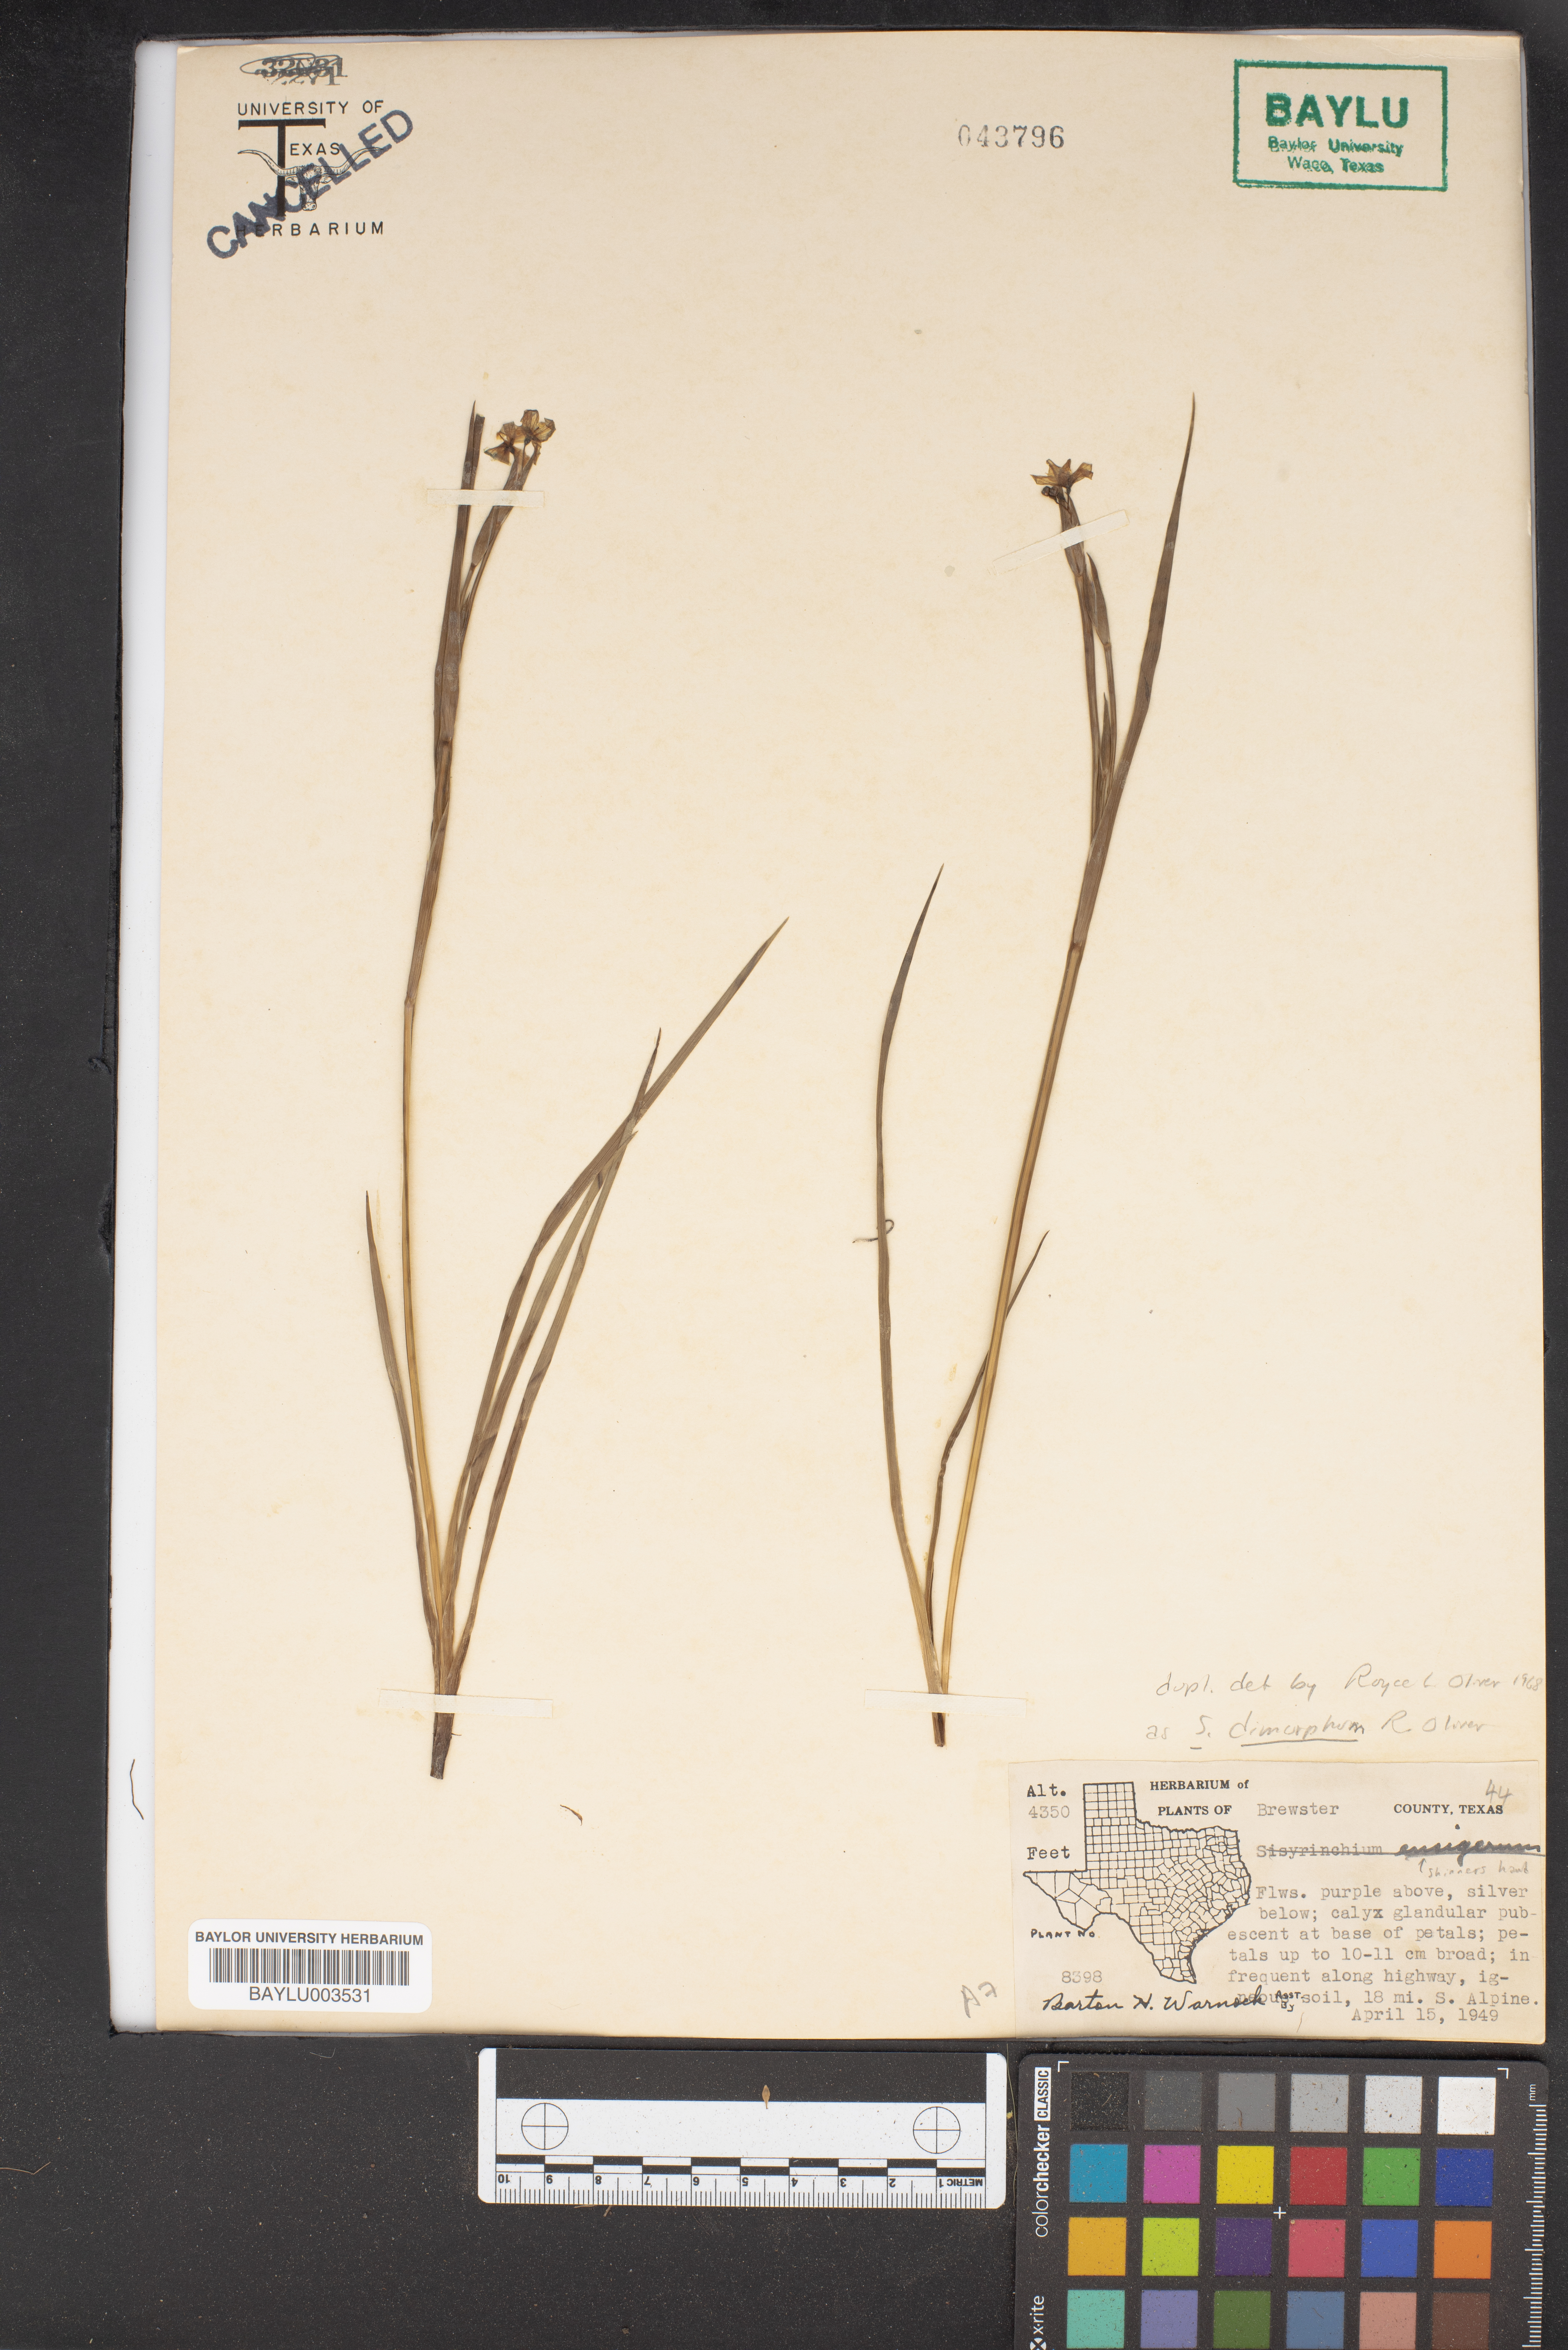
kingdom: Plantae
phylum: Tracheophyta
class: Liliopsida
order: Asparagales
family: Iridaceae
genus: Sisyrinchium
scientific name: Sisyrinchium dimorphum
